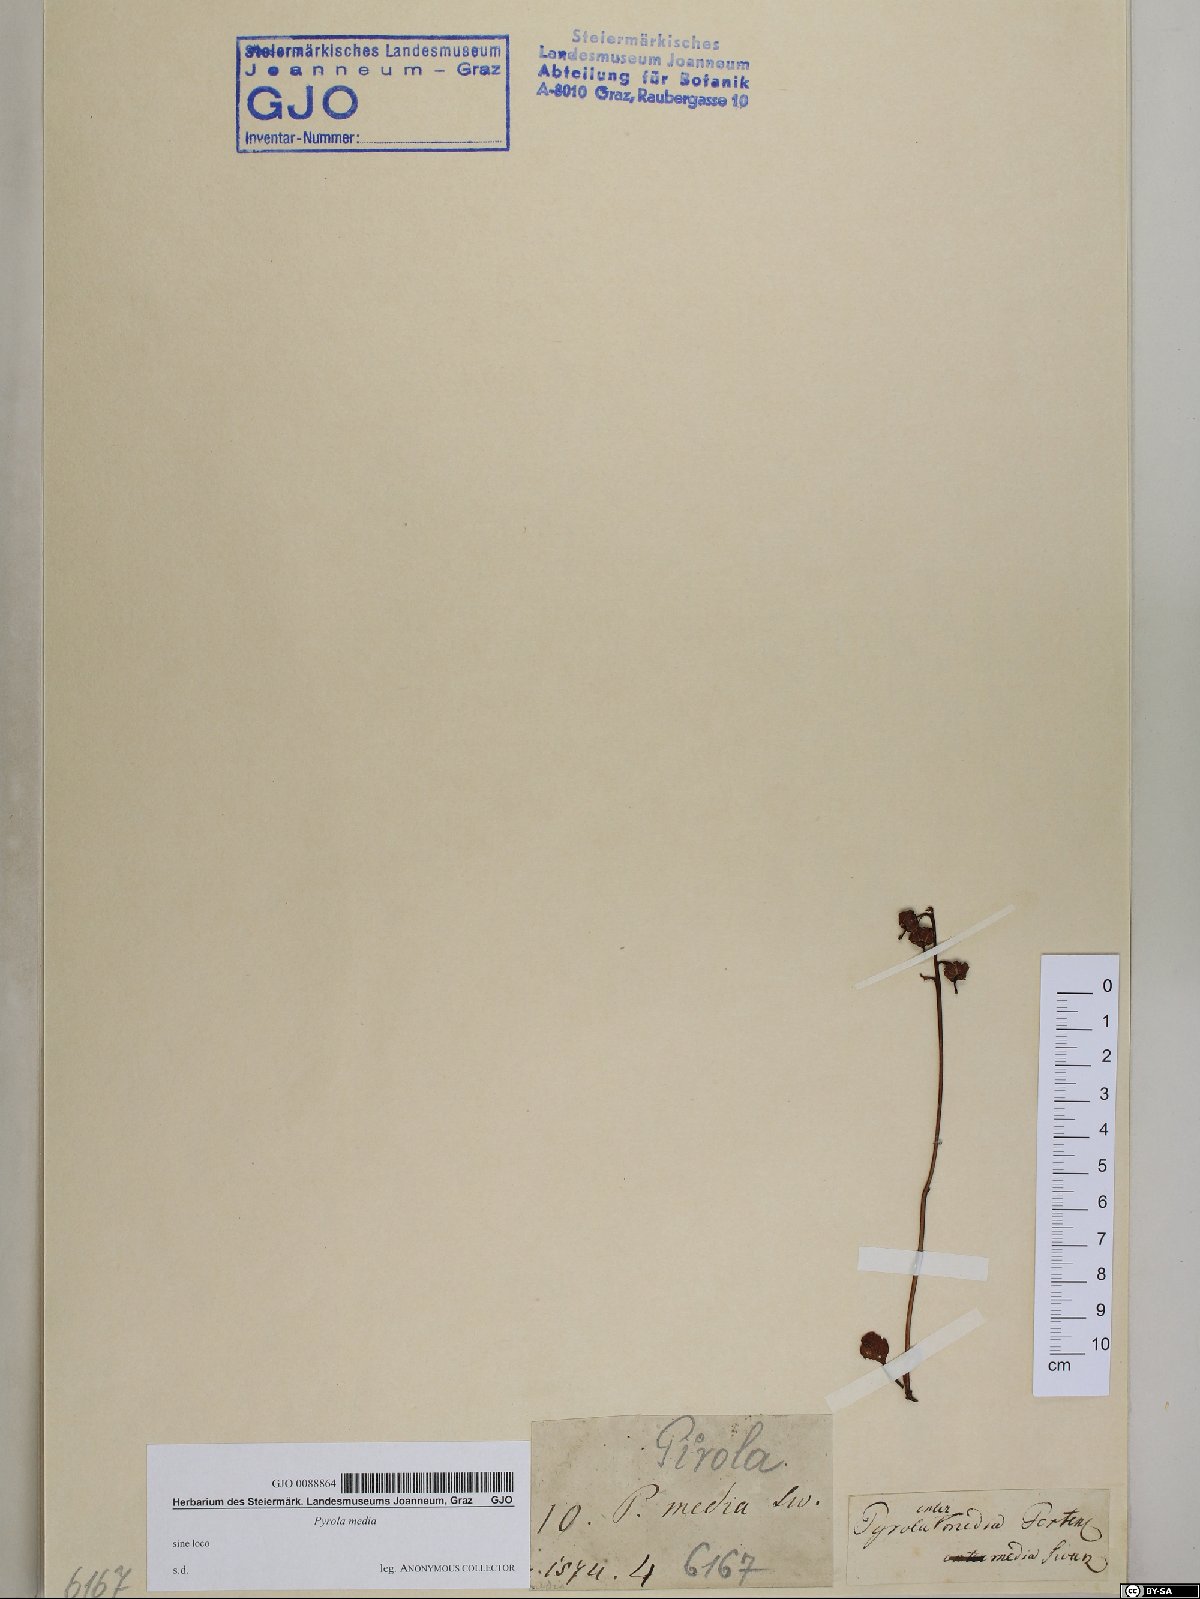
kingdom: Plantae
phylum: Tracheophyta
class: Magnoliopsida
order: Ericales
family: Ericaceae
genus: Pyrola
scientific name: Pyrola media
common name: Intermediate wintergreen
